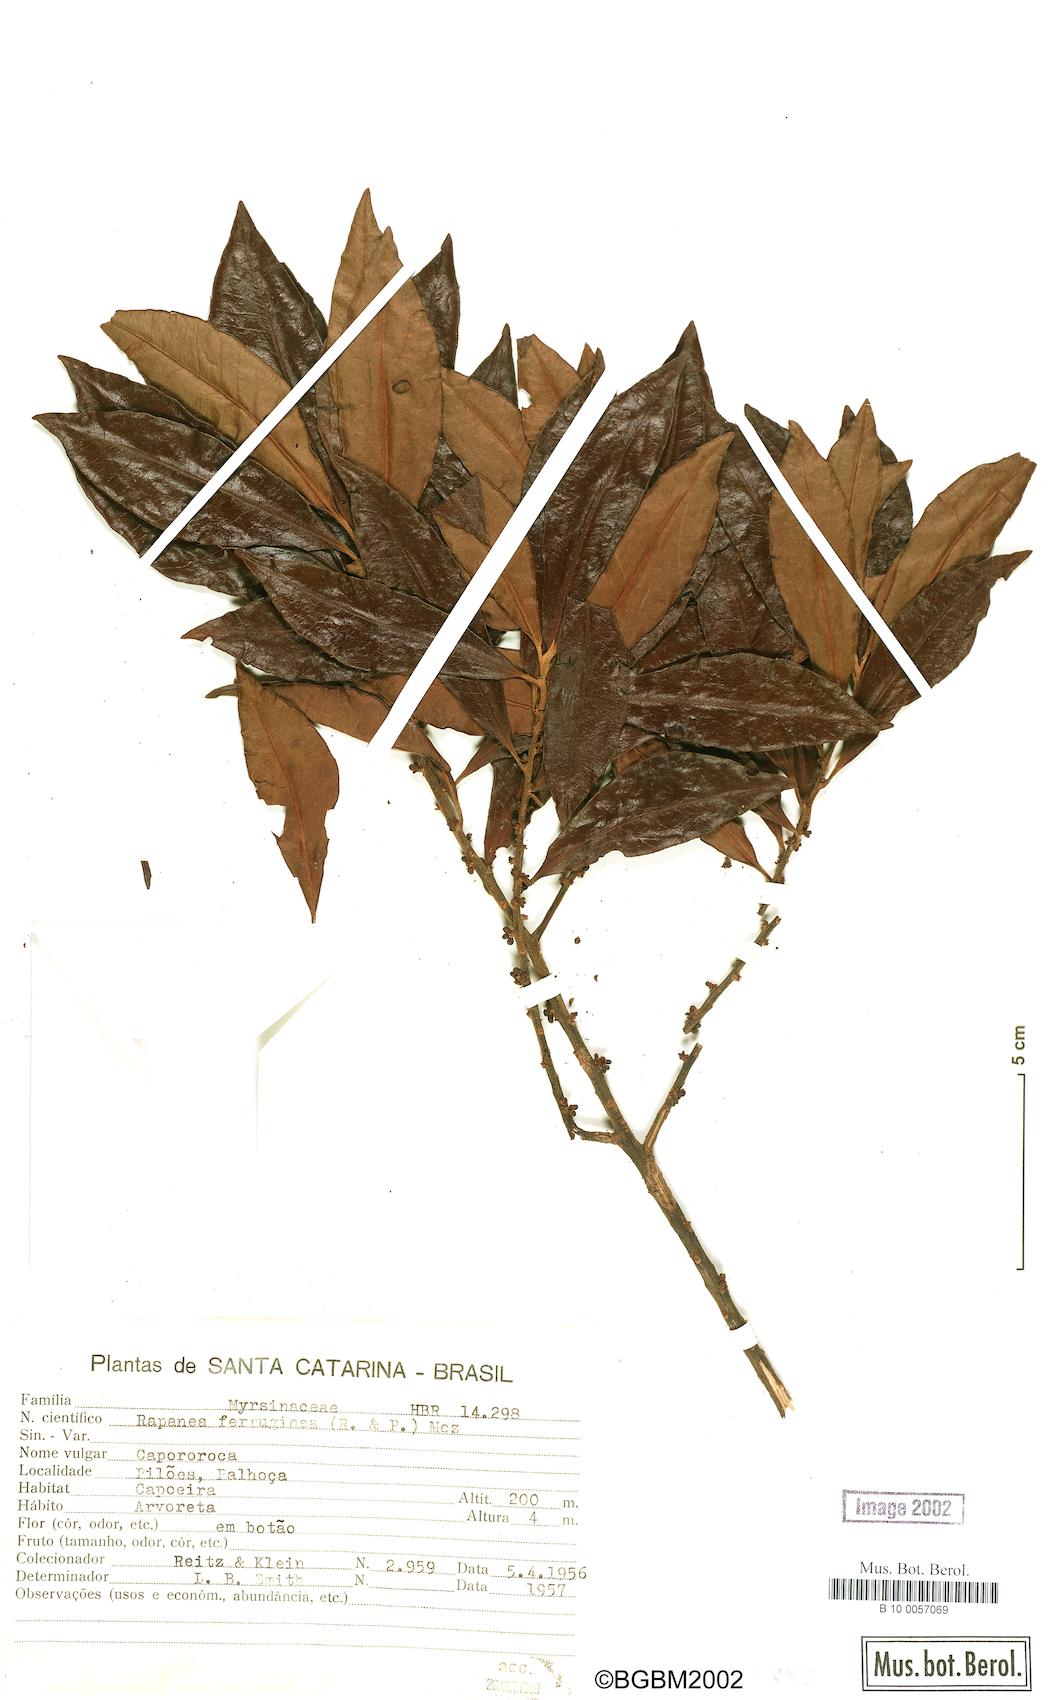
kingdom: Plantae
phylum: Tracheophyta
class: Magnoliopsida
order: Ericales
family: Primulaceae
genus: Myrsine
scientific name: Myrsine coriacea
